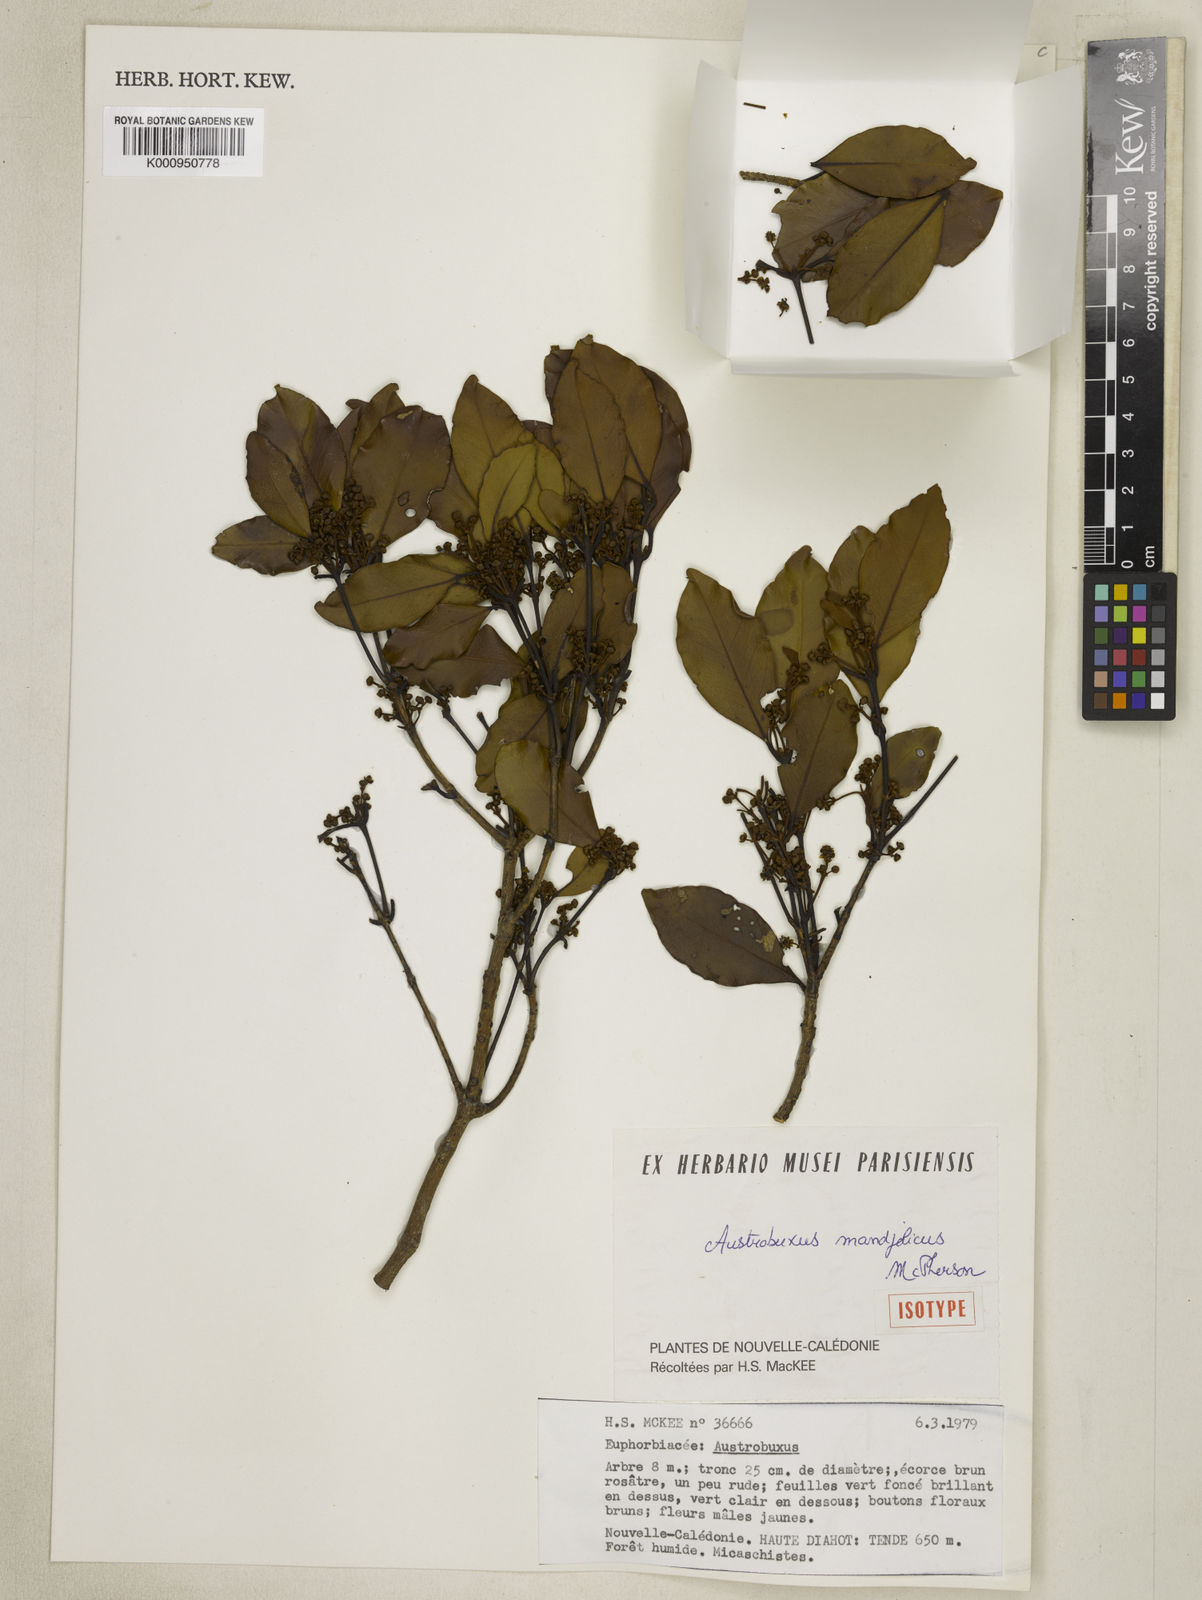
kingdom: Plantae
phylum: Tracheophyta
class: Magnoliopsida
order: Malpighiales
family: Picrodendraceae
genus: Austrobuxus
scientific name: Austrobuxus mandjelicus
